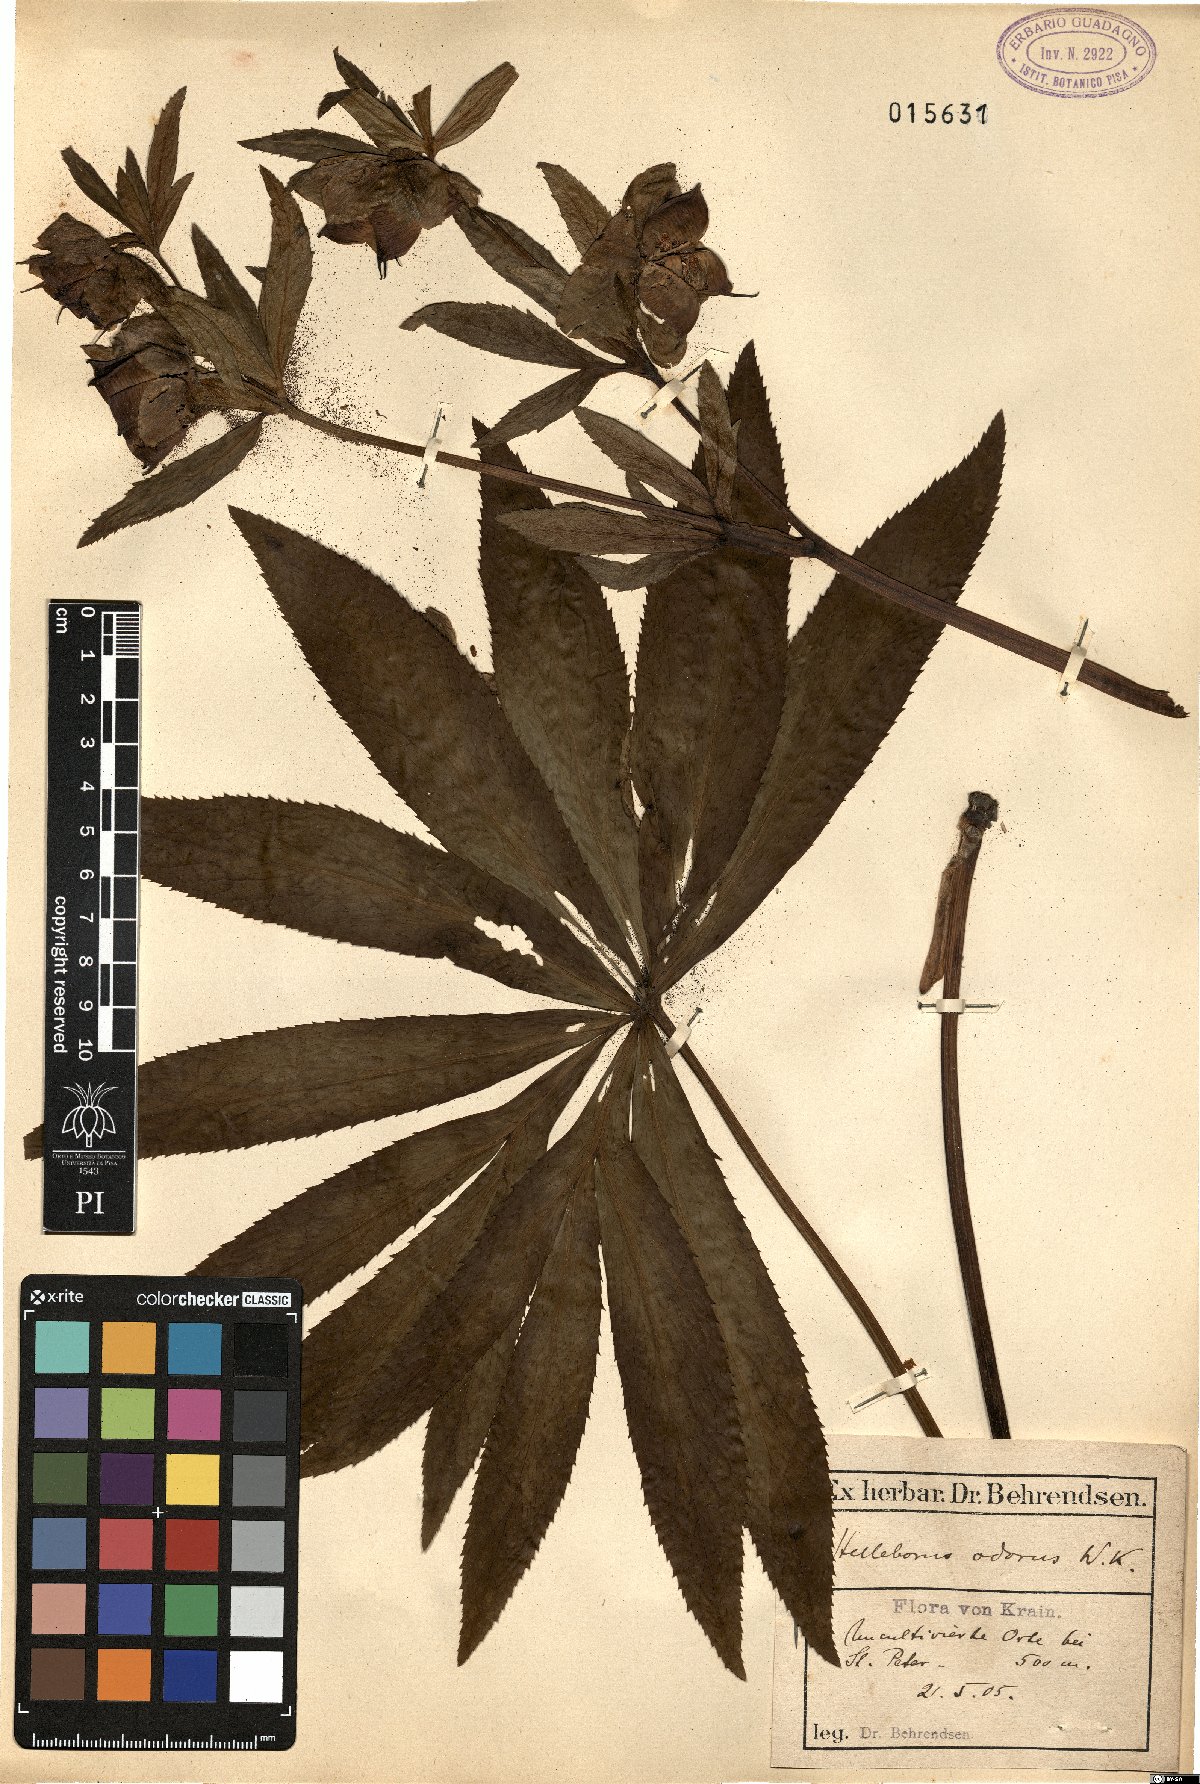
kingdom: Plantae
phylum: Tracheophyta
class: Magnoliopsida
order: Ranunculales
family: Ranunculaceae
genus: Helleborus
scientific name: Helleborus odorus
